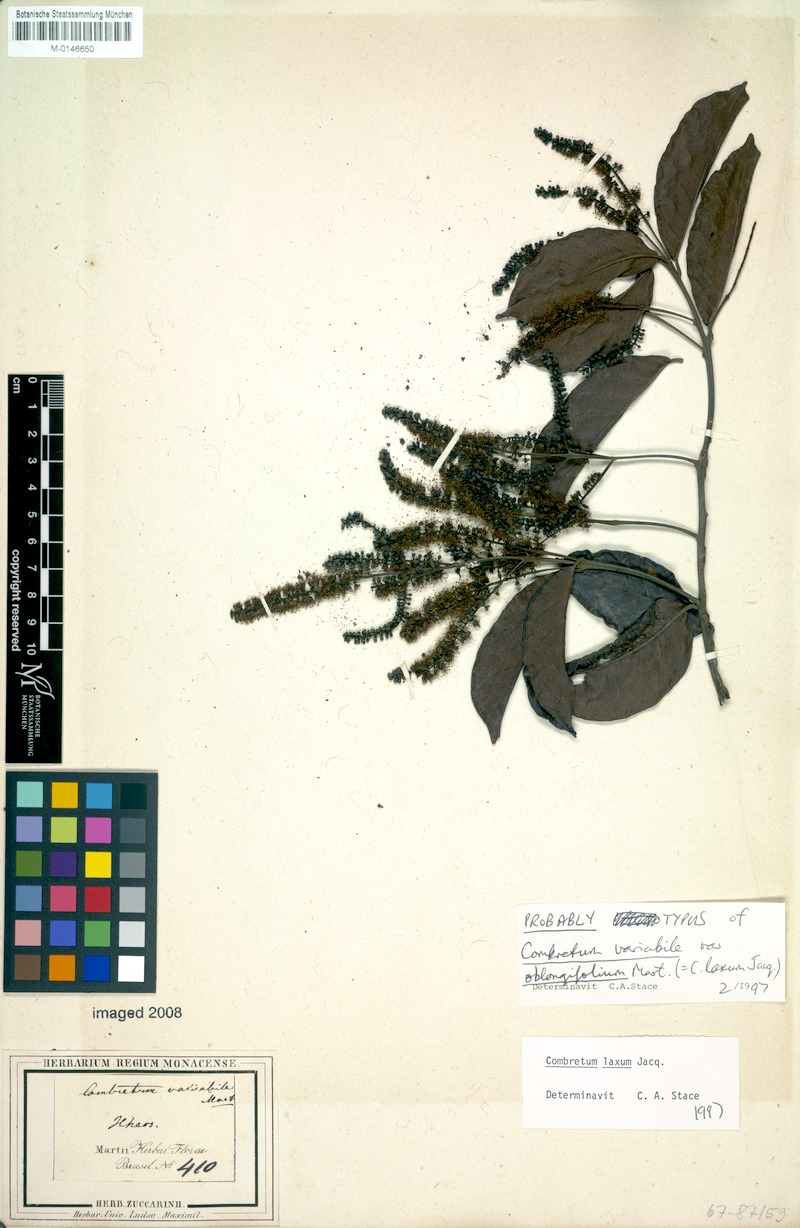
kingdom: Plantae
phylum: Tracheophyta
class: Magnoliopsida
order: Myrtales
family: Combretaceae
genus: Combretum
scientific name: Combretum laxum
